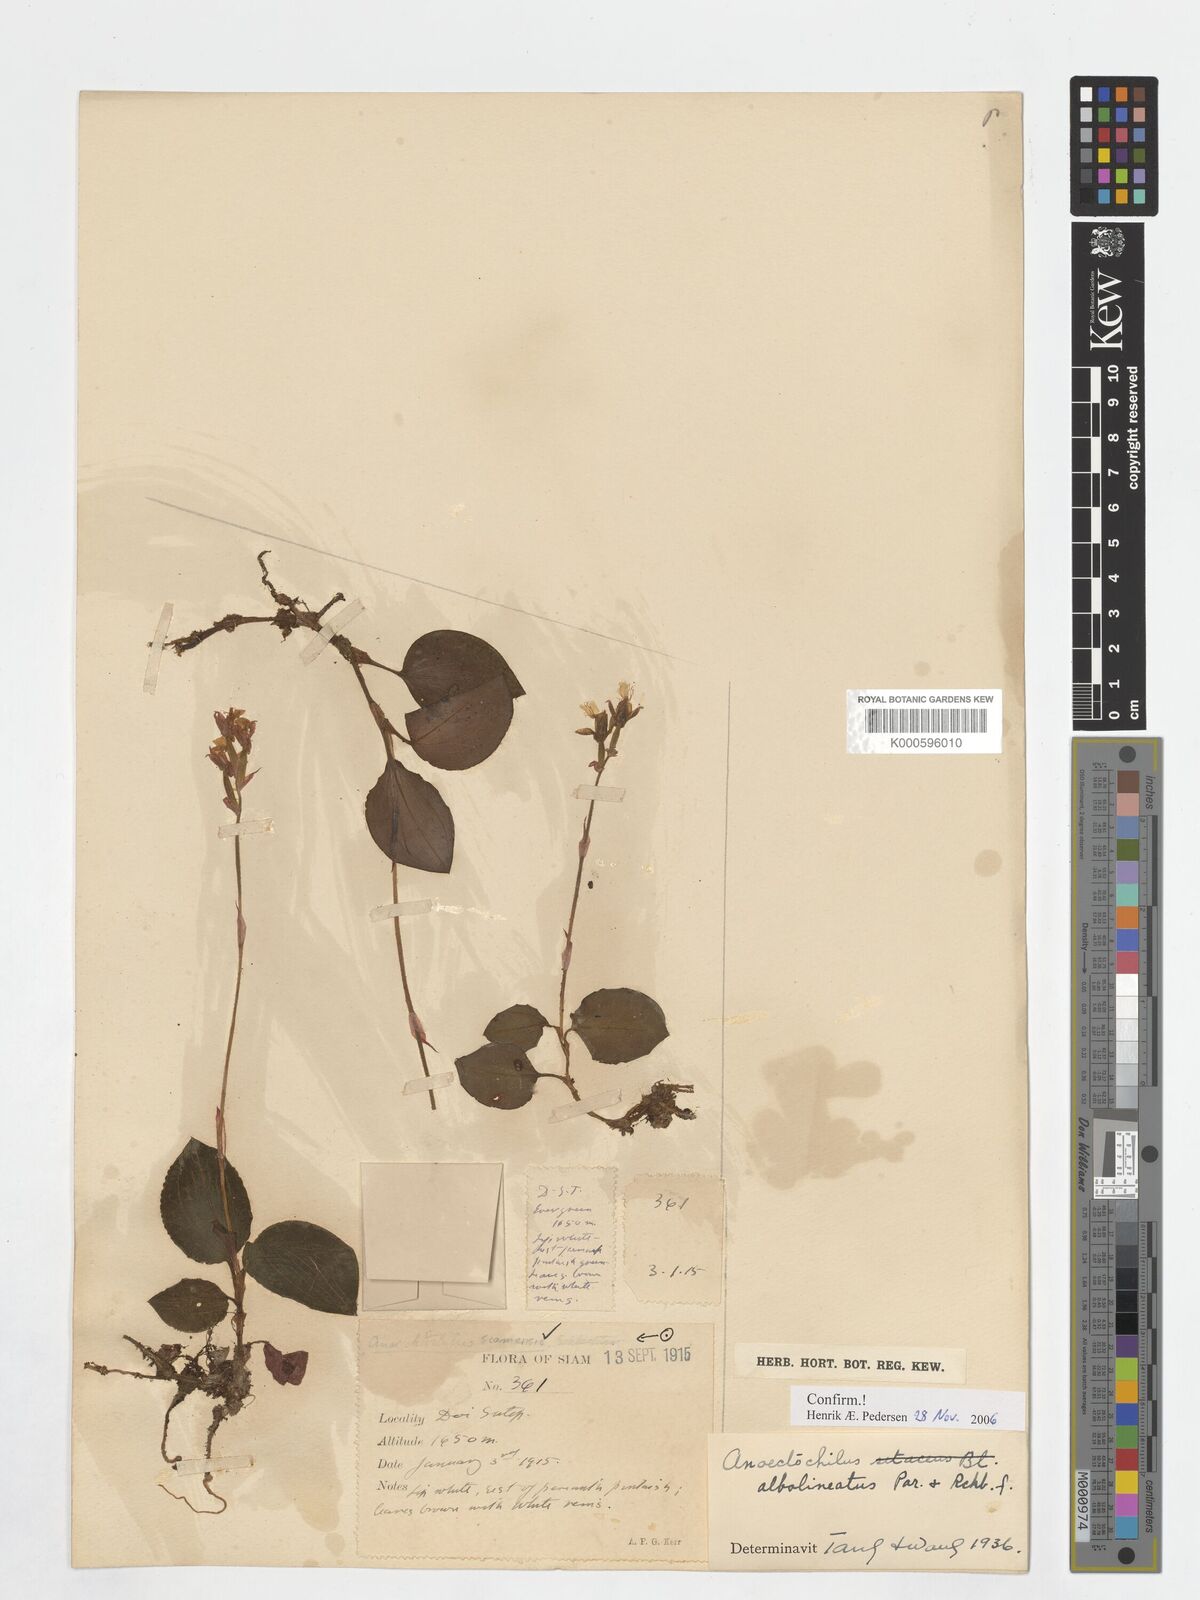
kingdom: Plantae
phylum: Tracheophyta
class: Liliopsida
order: Asparagales
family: Orchidaceae
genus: Anoectochilus
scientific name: Anoectochilus albolineatus
